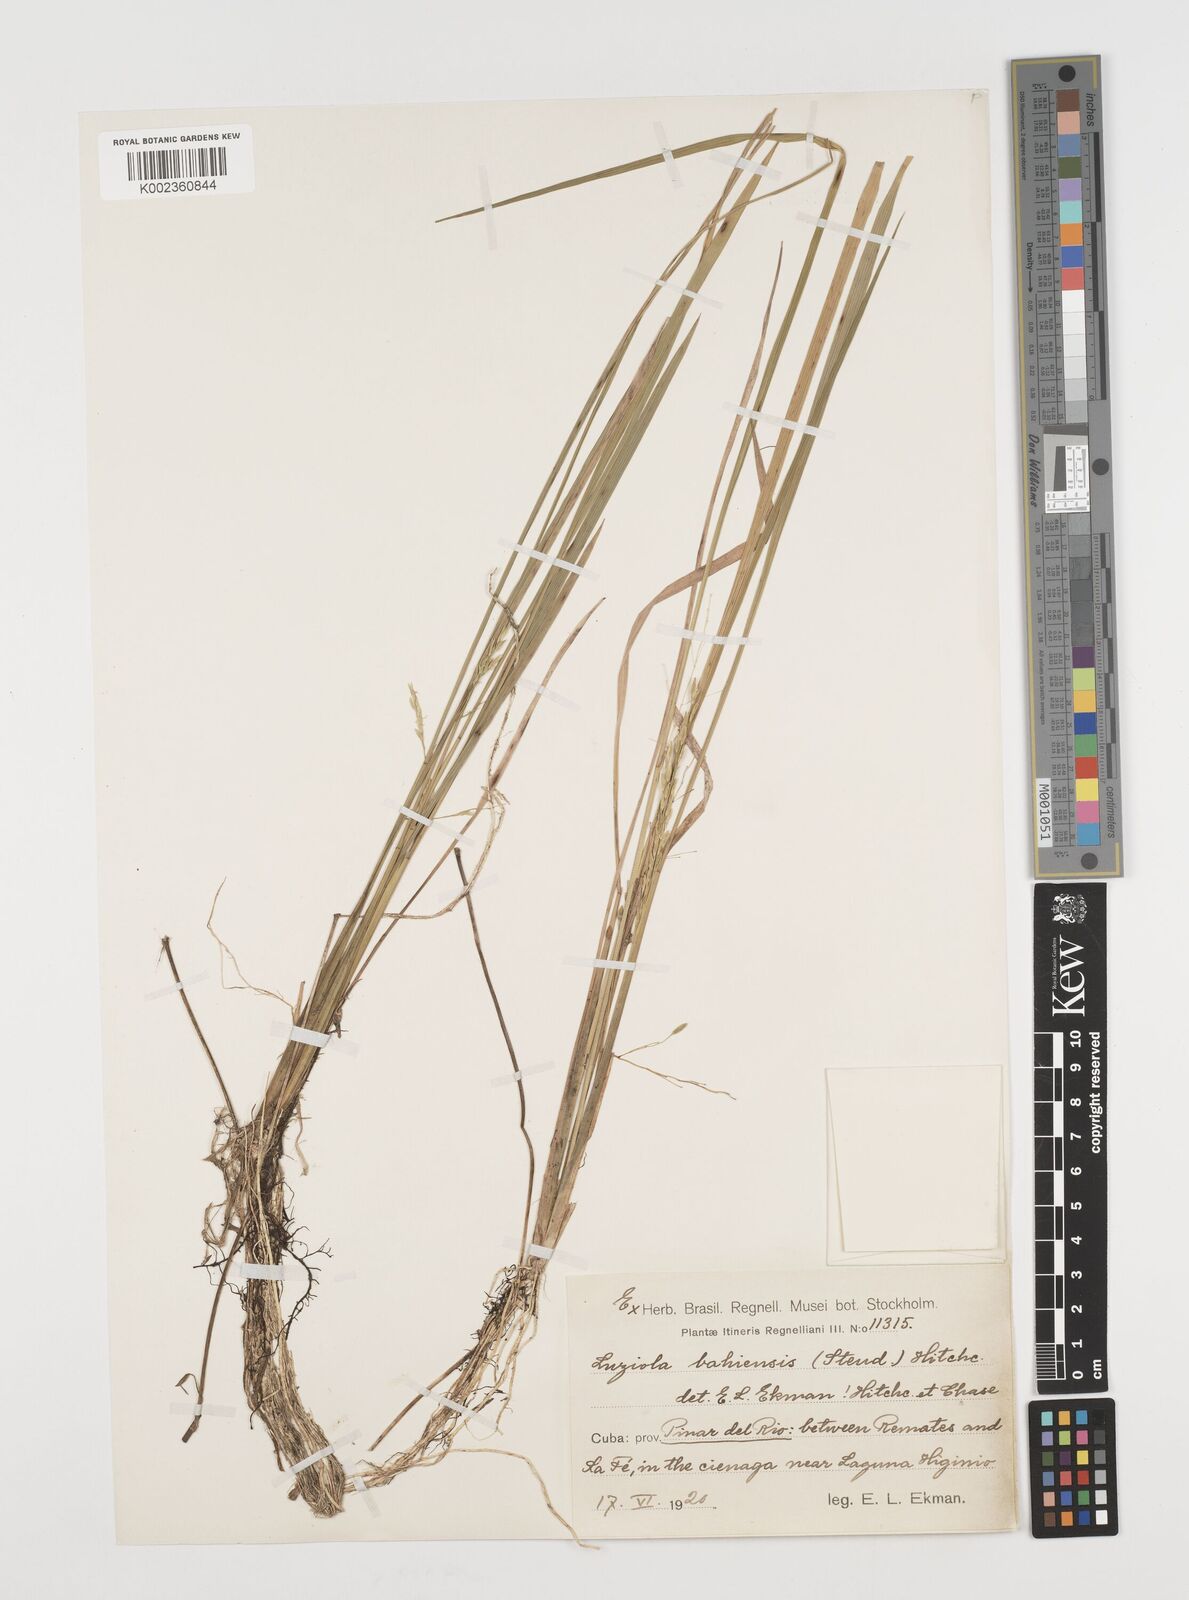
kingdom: Plantae
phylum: Tracheophyta
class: Liliopsida
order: Poales
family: Poaceae
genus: Luziola
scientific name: Luziola bahiensis
